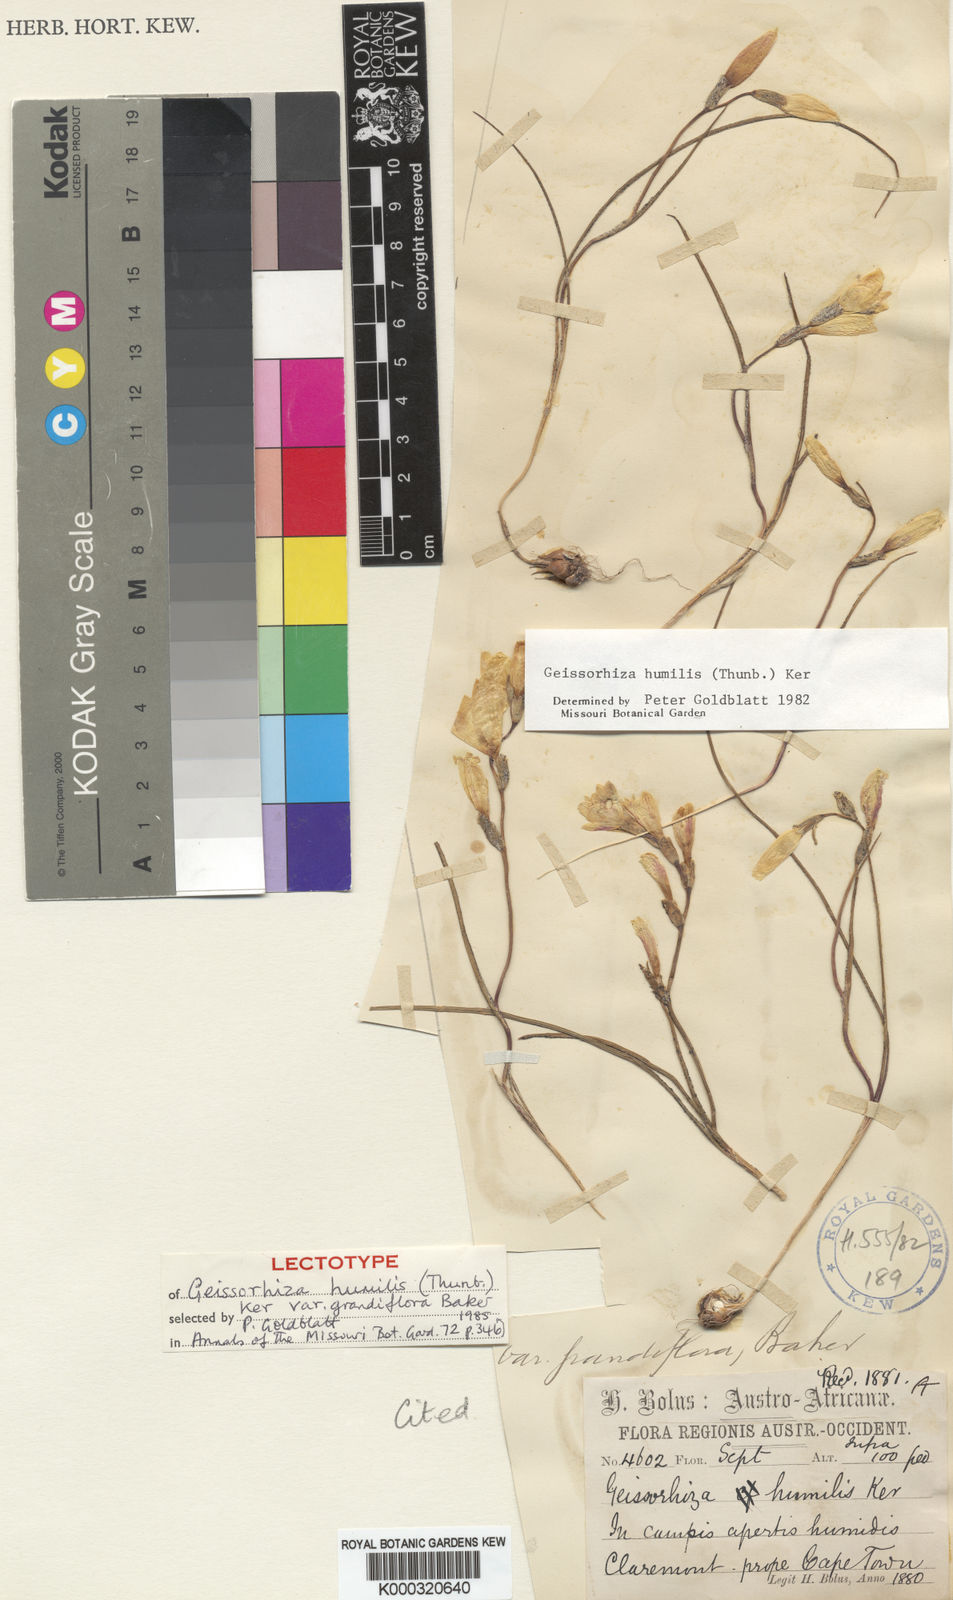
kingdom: Plantae
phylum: Tracheophyta
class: Liliopsida
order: Asparagales
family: Iridaceae
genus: Geissorhiza
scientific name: Geissorhiza humilis
